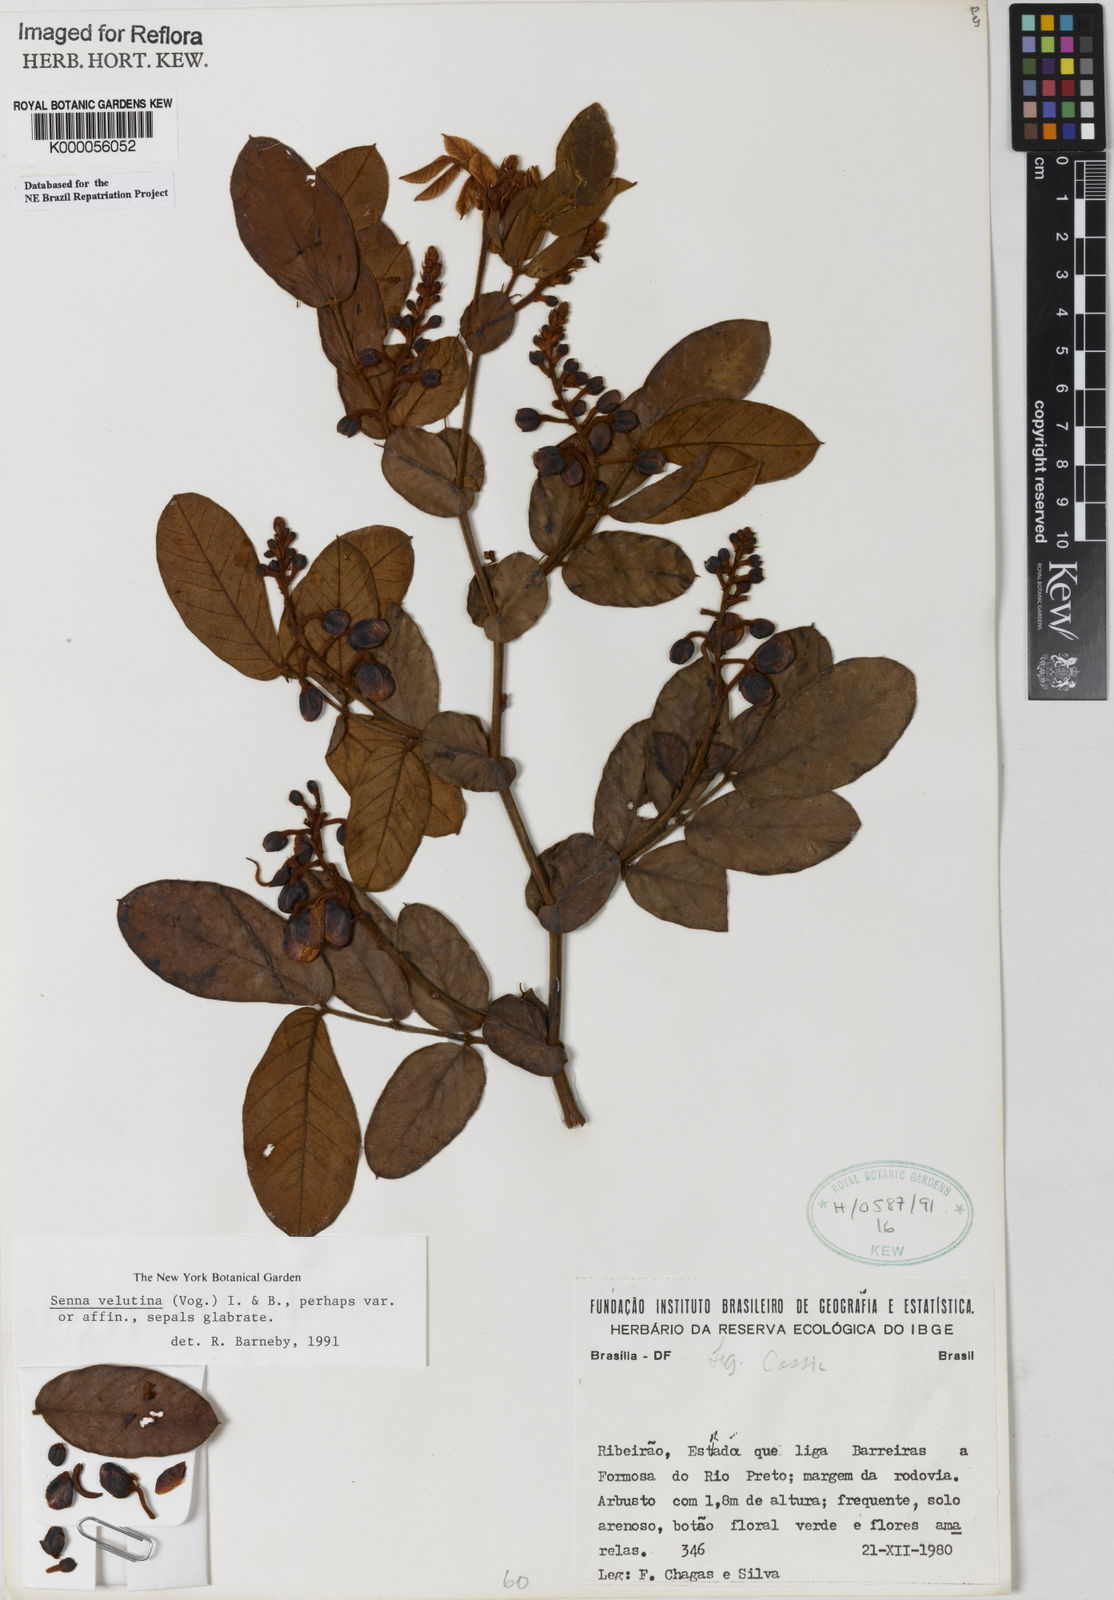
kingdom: Plantae
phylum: Tracheophyta
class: Magnoliopsida
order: Fabales
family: Fabaceae
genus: Senna
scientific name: Senna velutina
